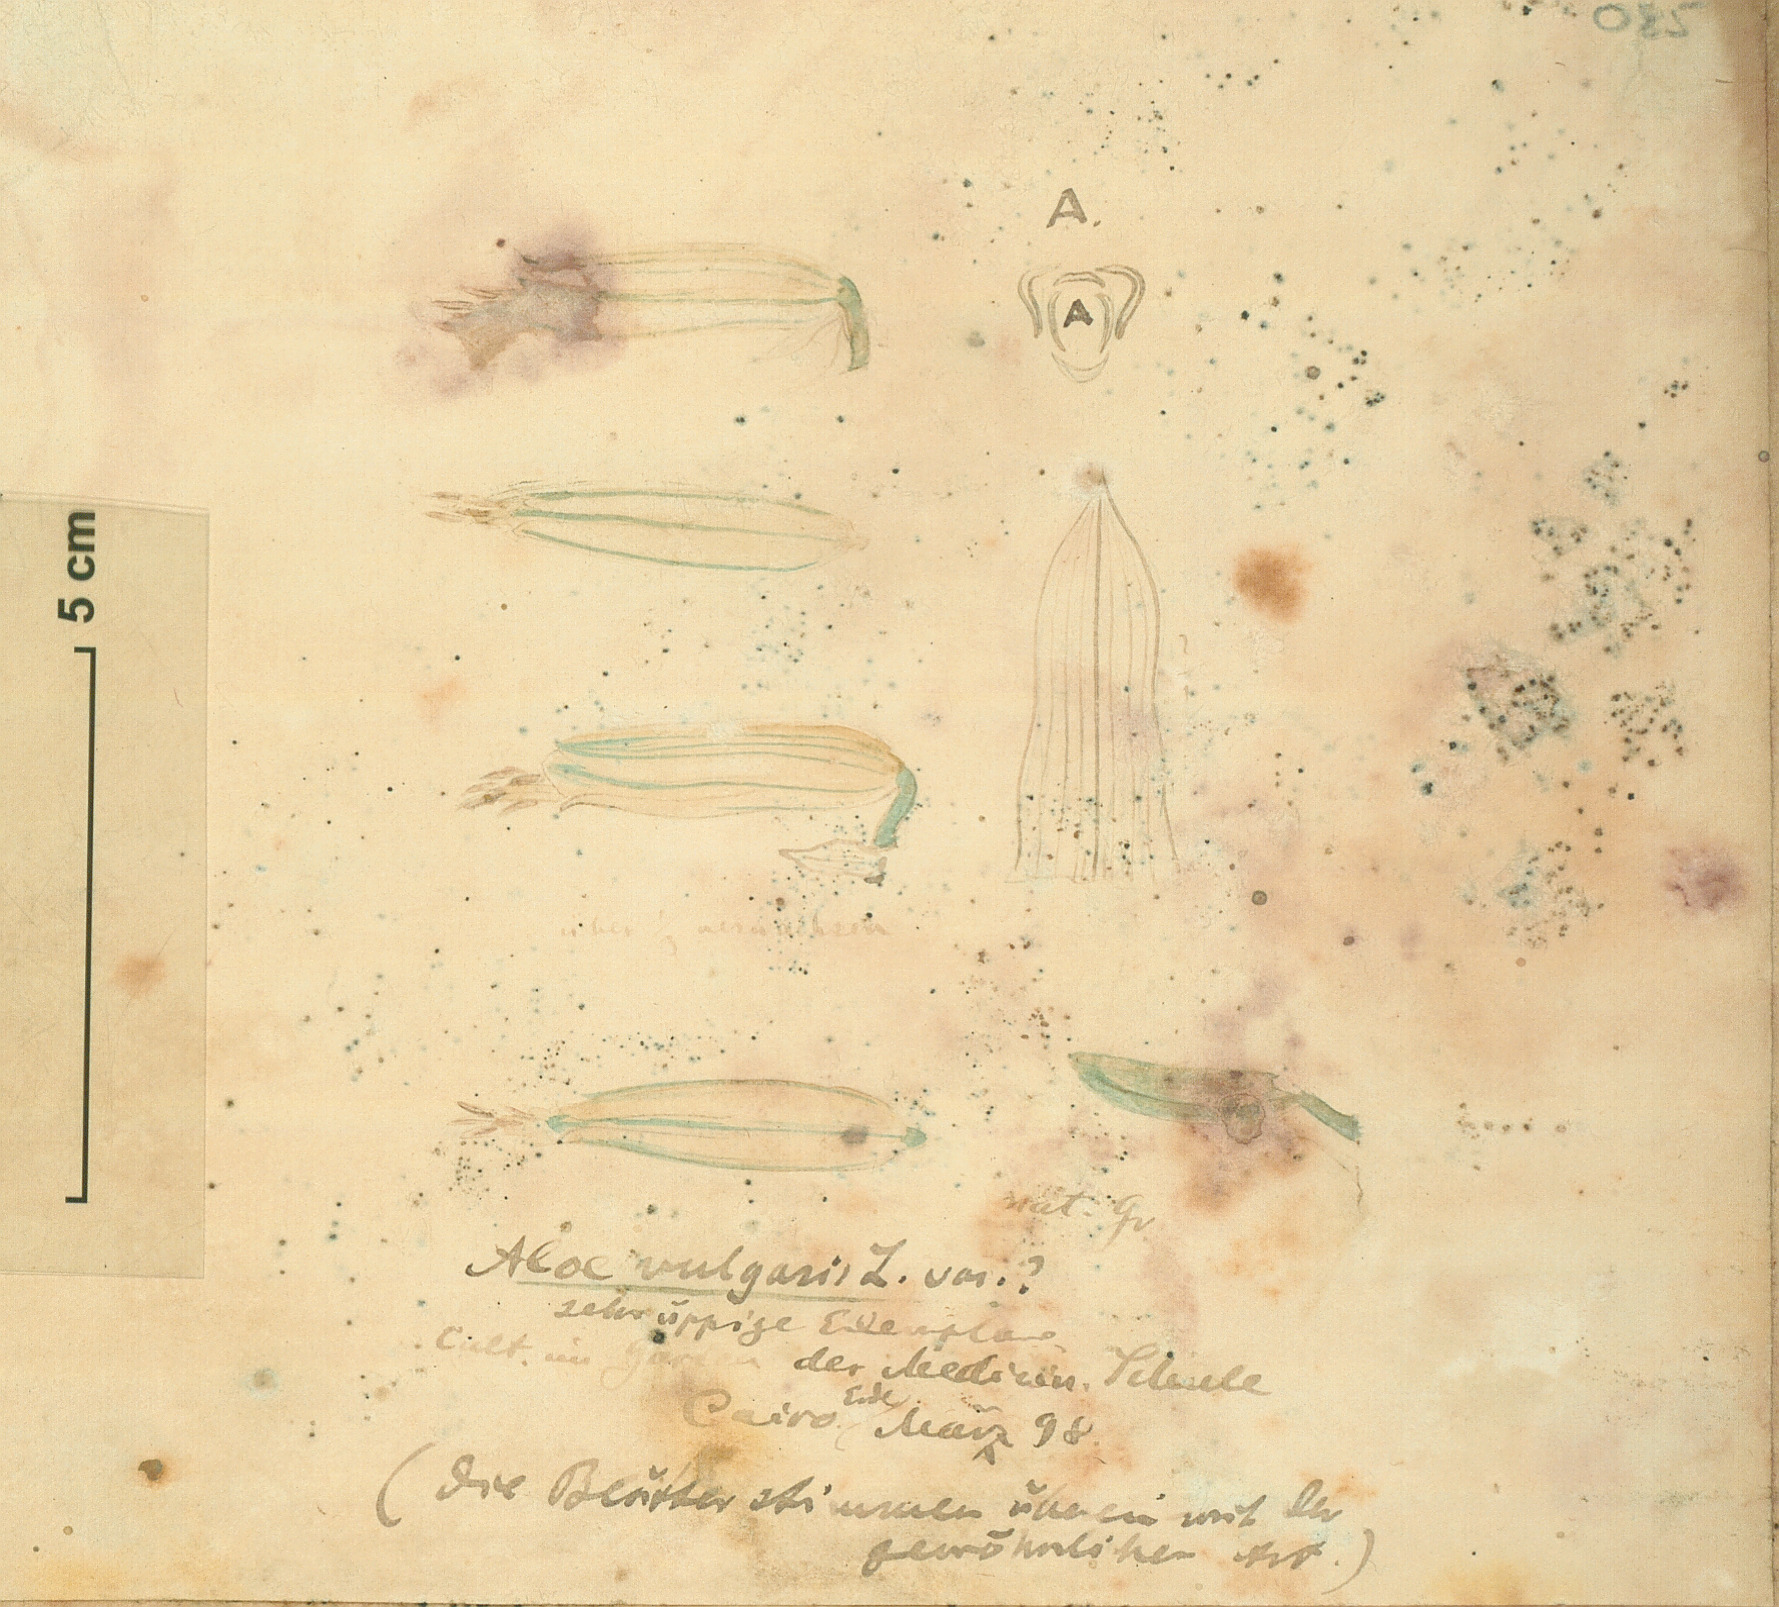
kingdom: Plantae
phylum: Tracheophyta
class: Liliopsida
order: Asparagales
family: Asphodelaceae
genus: Aloe
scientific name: Aloe vera
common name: Barbados aloe
